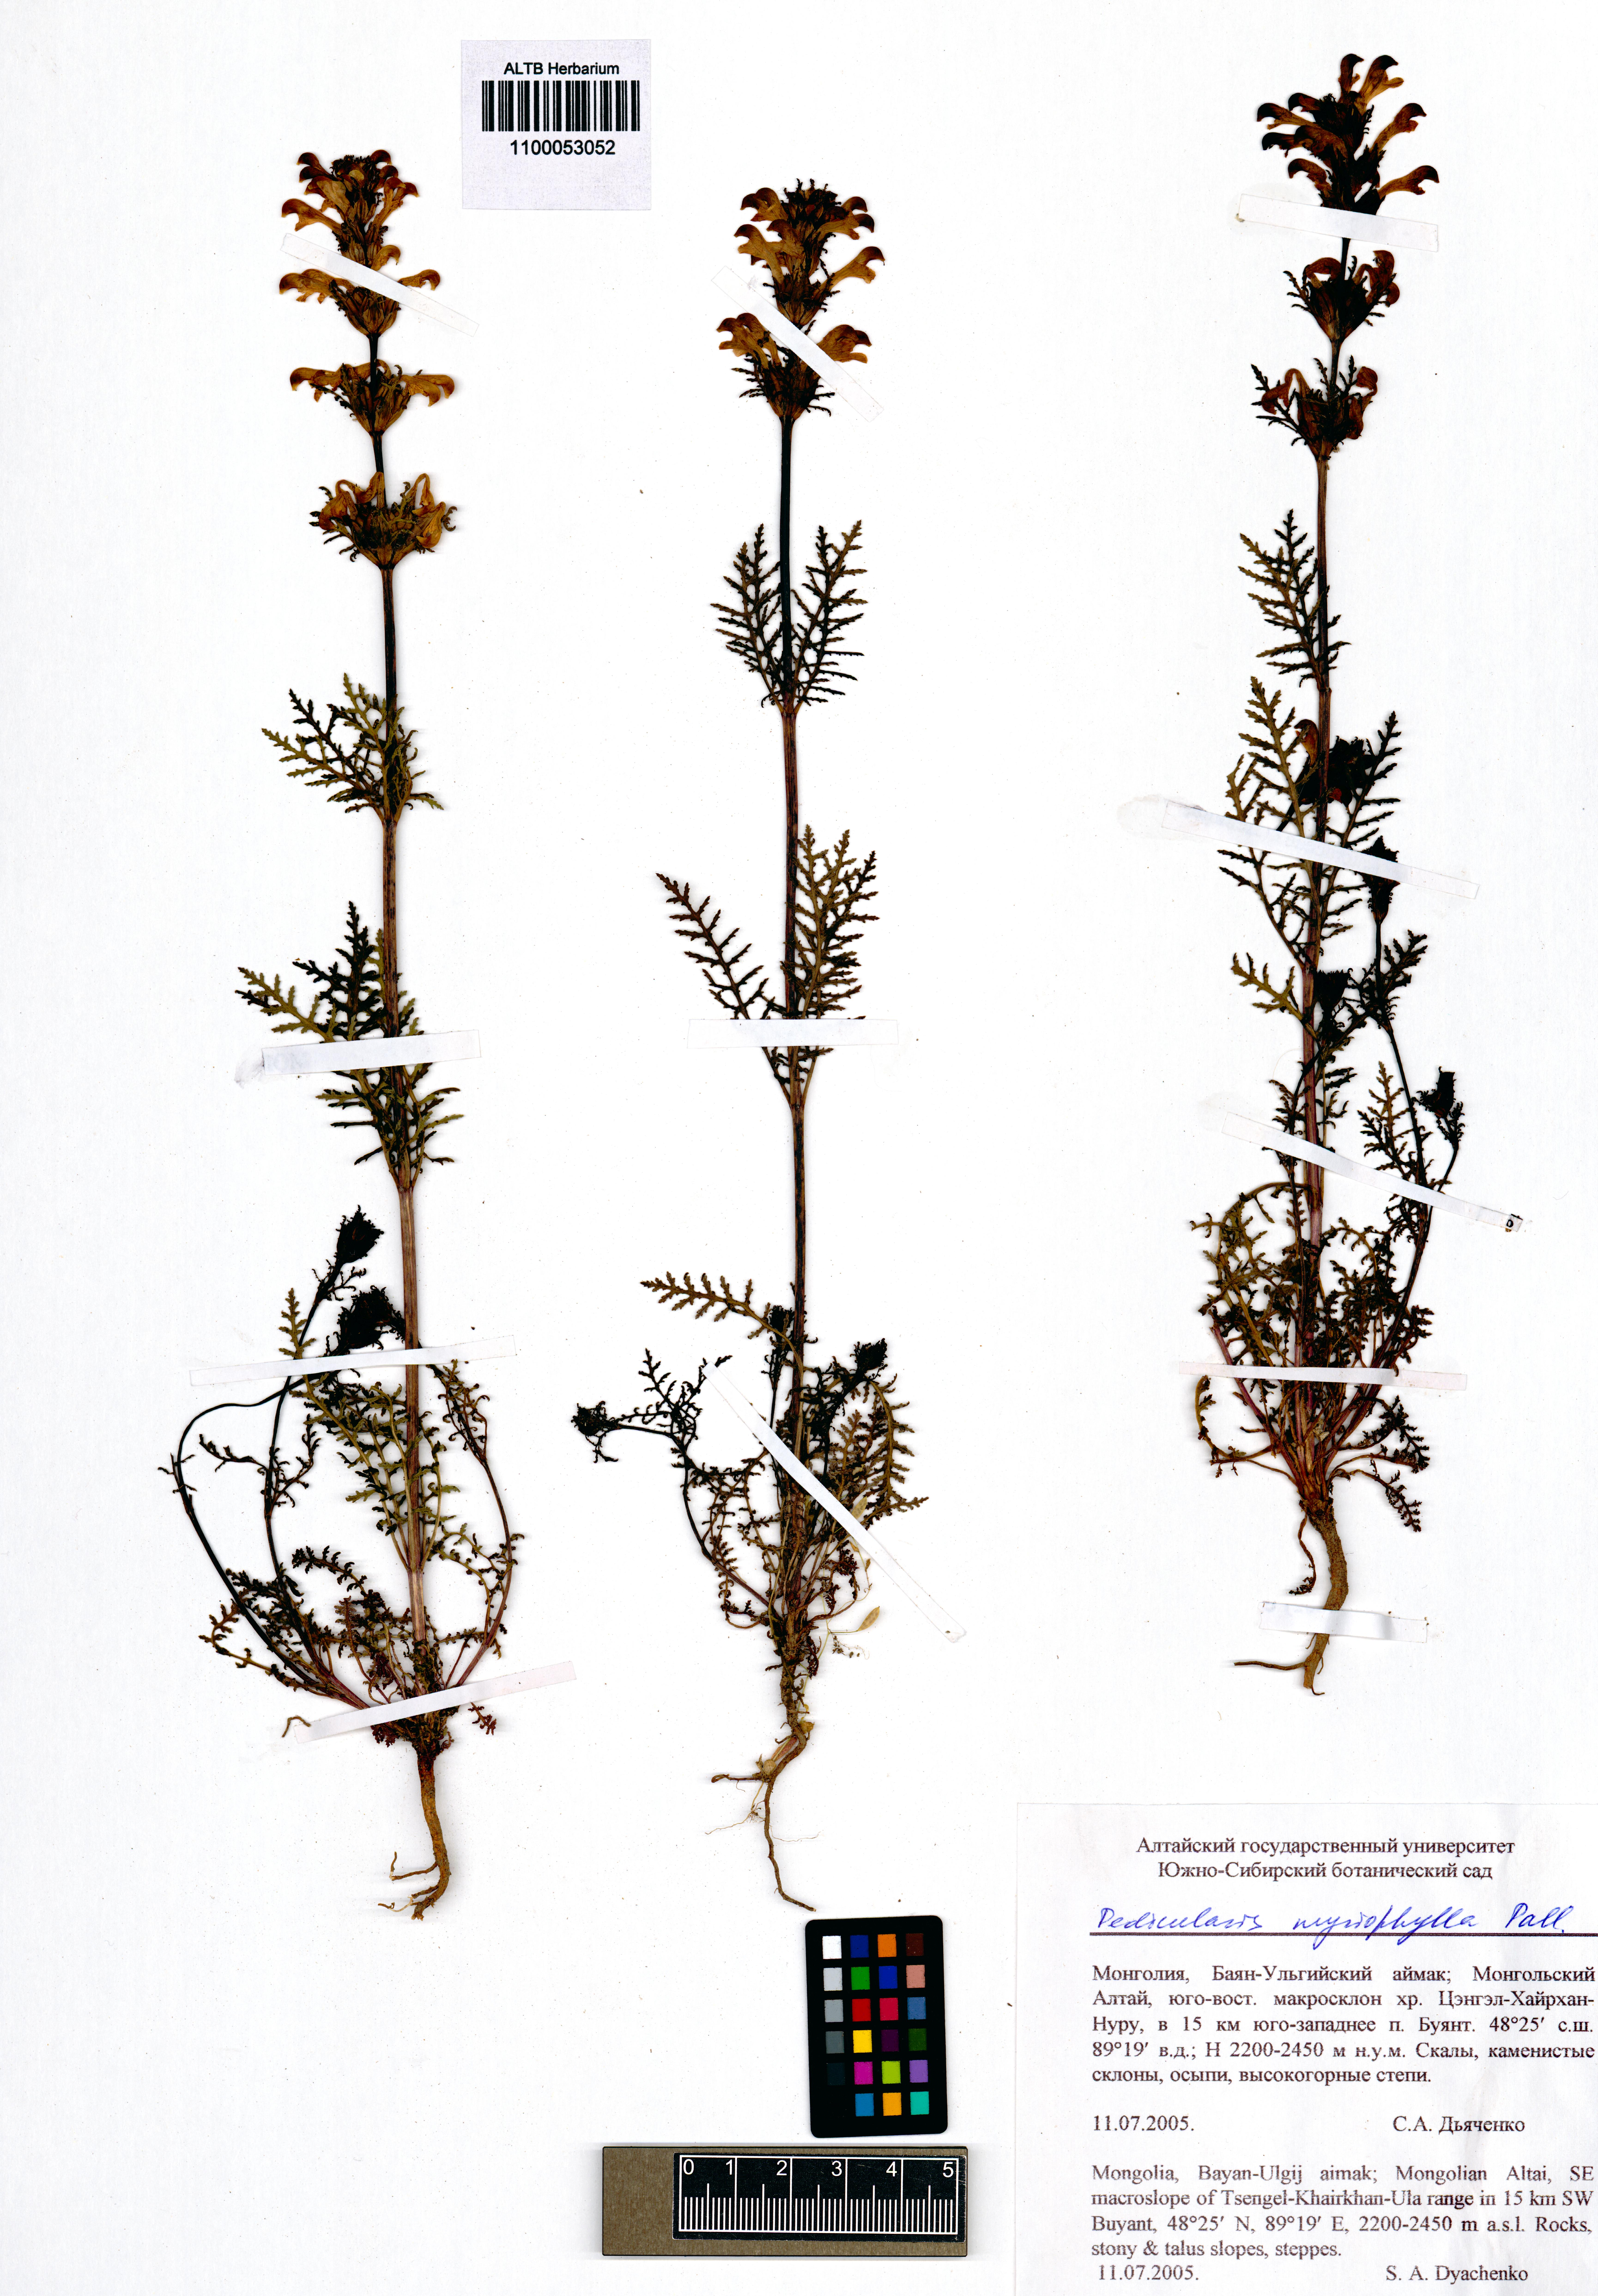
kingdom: Plantae
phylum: Tracheophyta
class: Magnoliopsida
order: Lamiales
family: Orobanchaceae
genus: Pedicularis
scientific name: Pedicularis myriophylla
